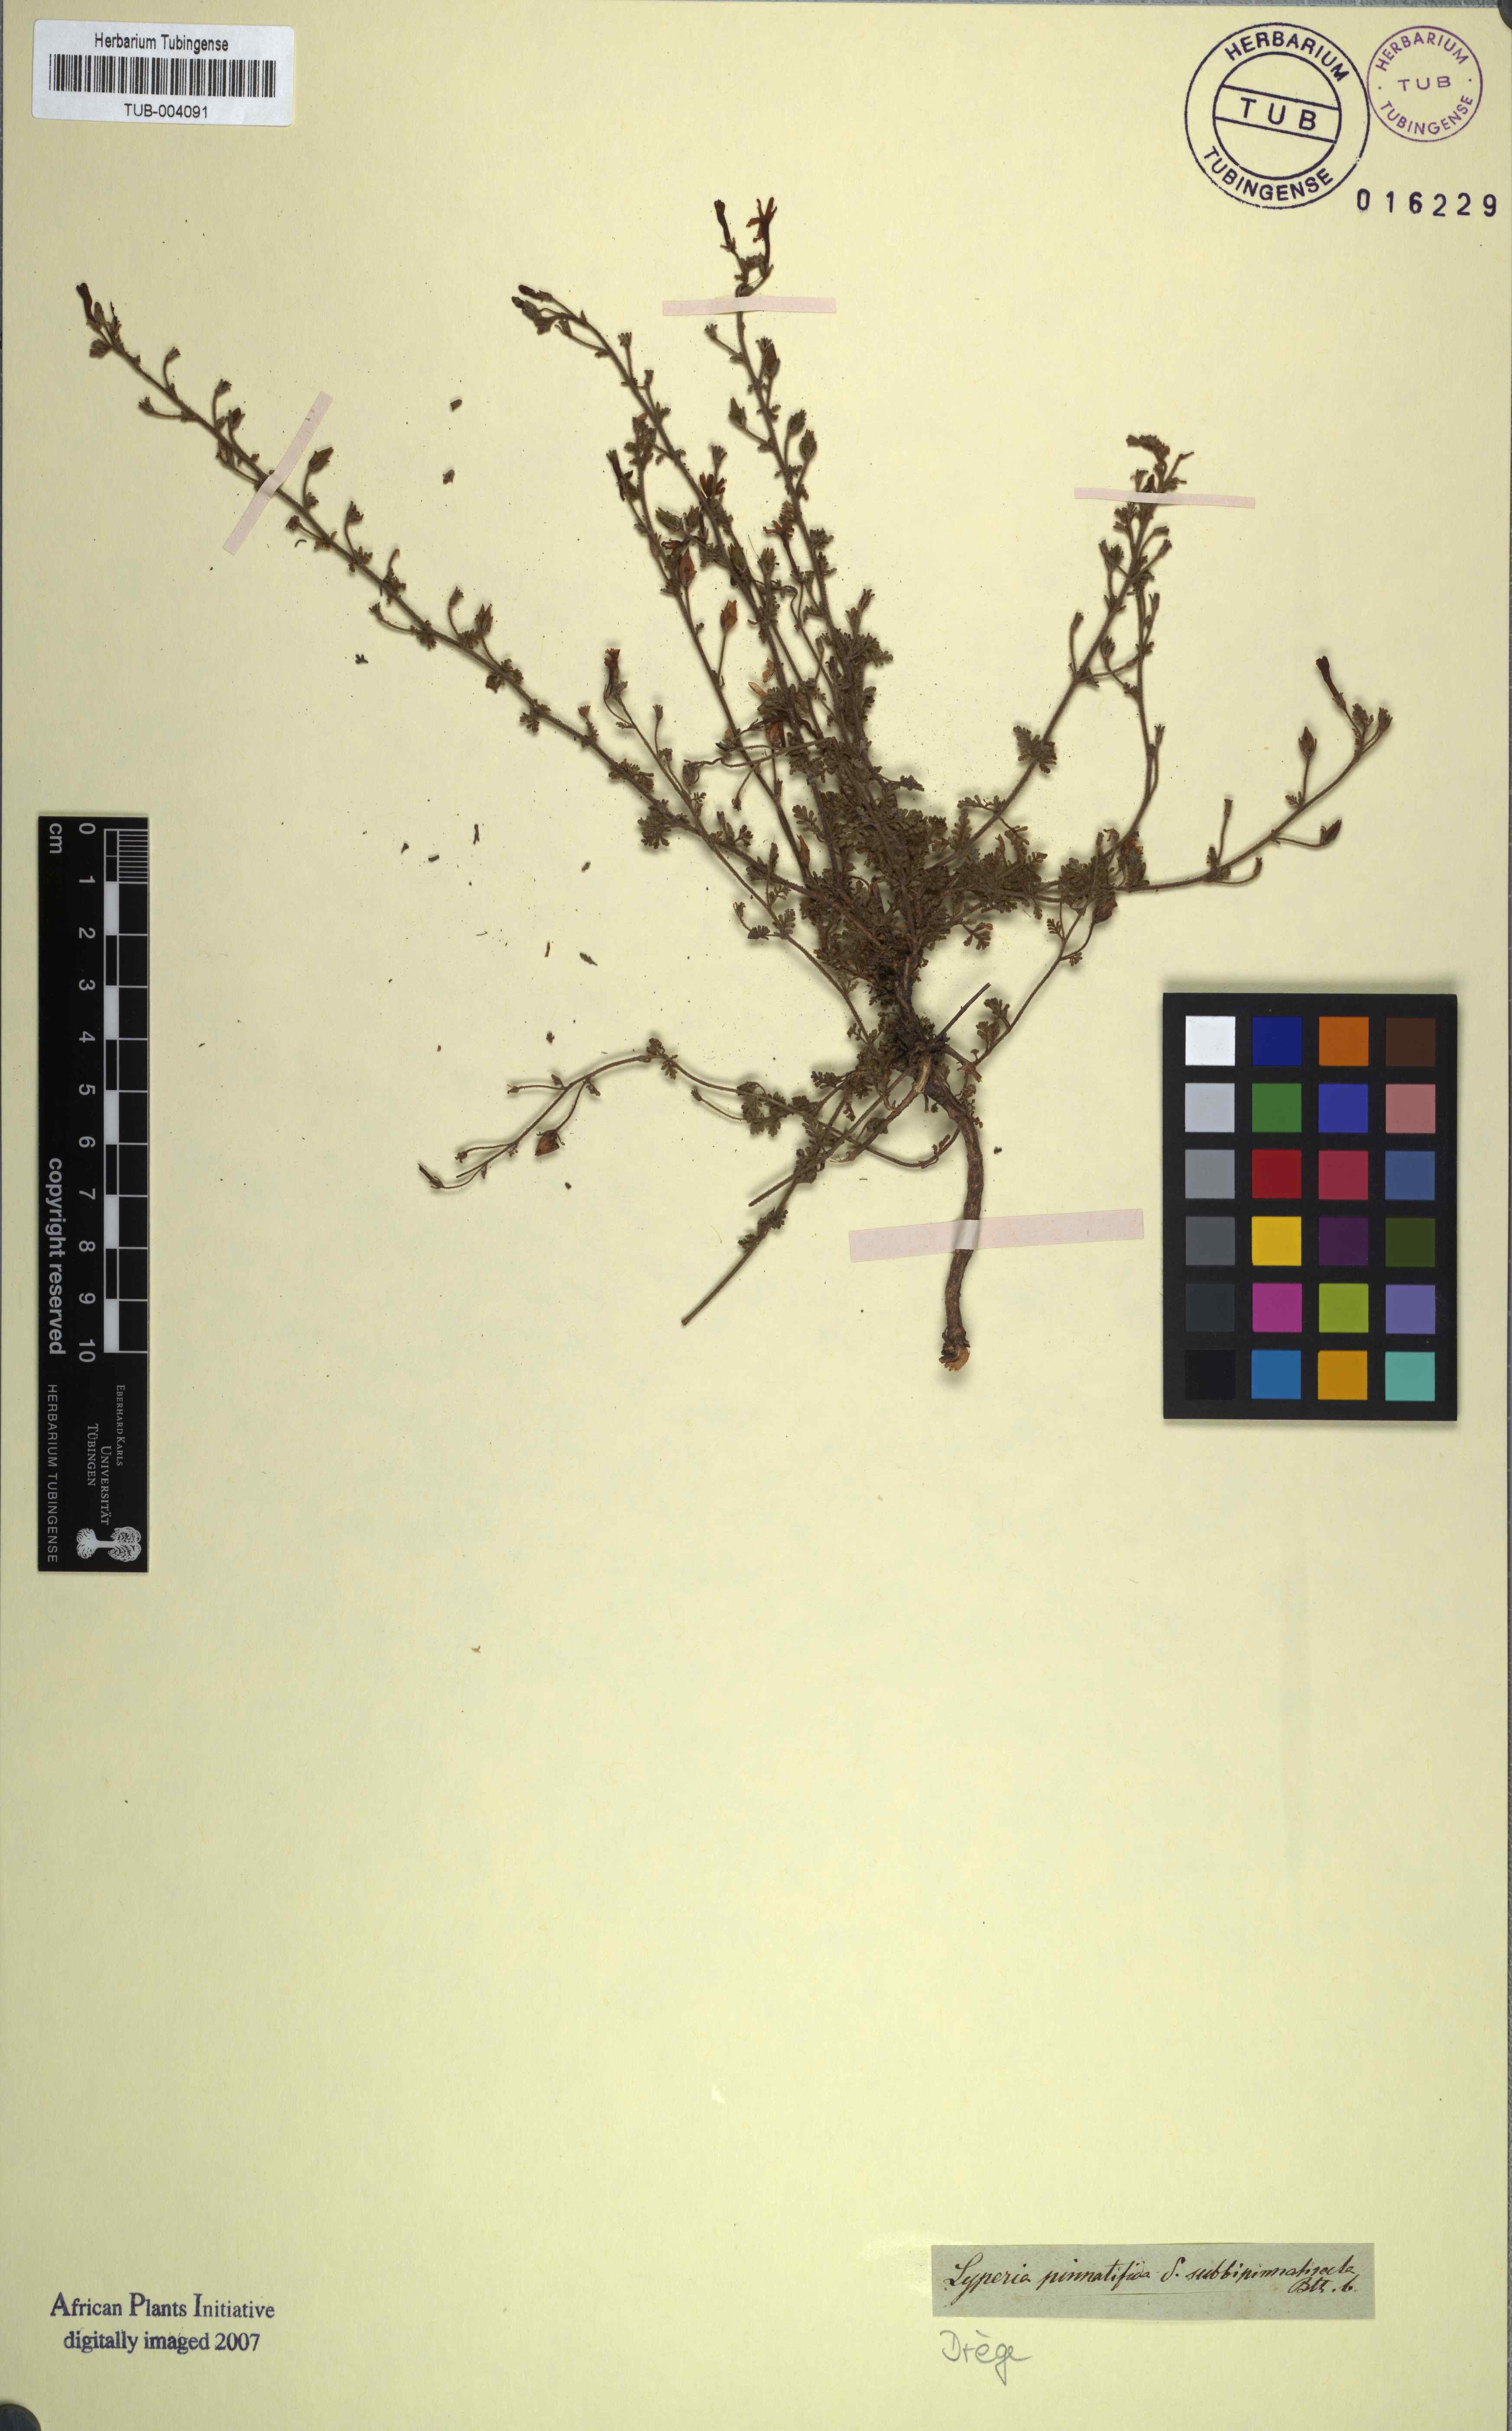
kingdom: Plantae
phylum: Tracheophyta
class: Magnoliopsida
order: Lamiales
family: Scrophulariaceae
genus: Jamesbrittenia
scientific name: Jamesbrittenia pinnatifida
